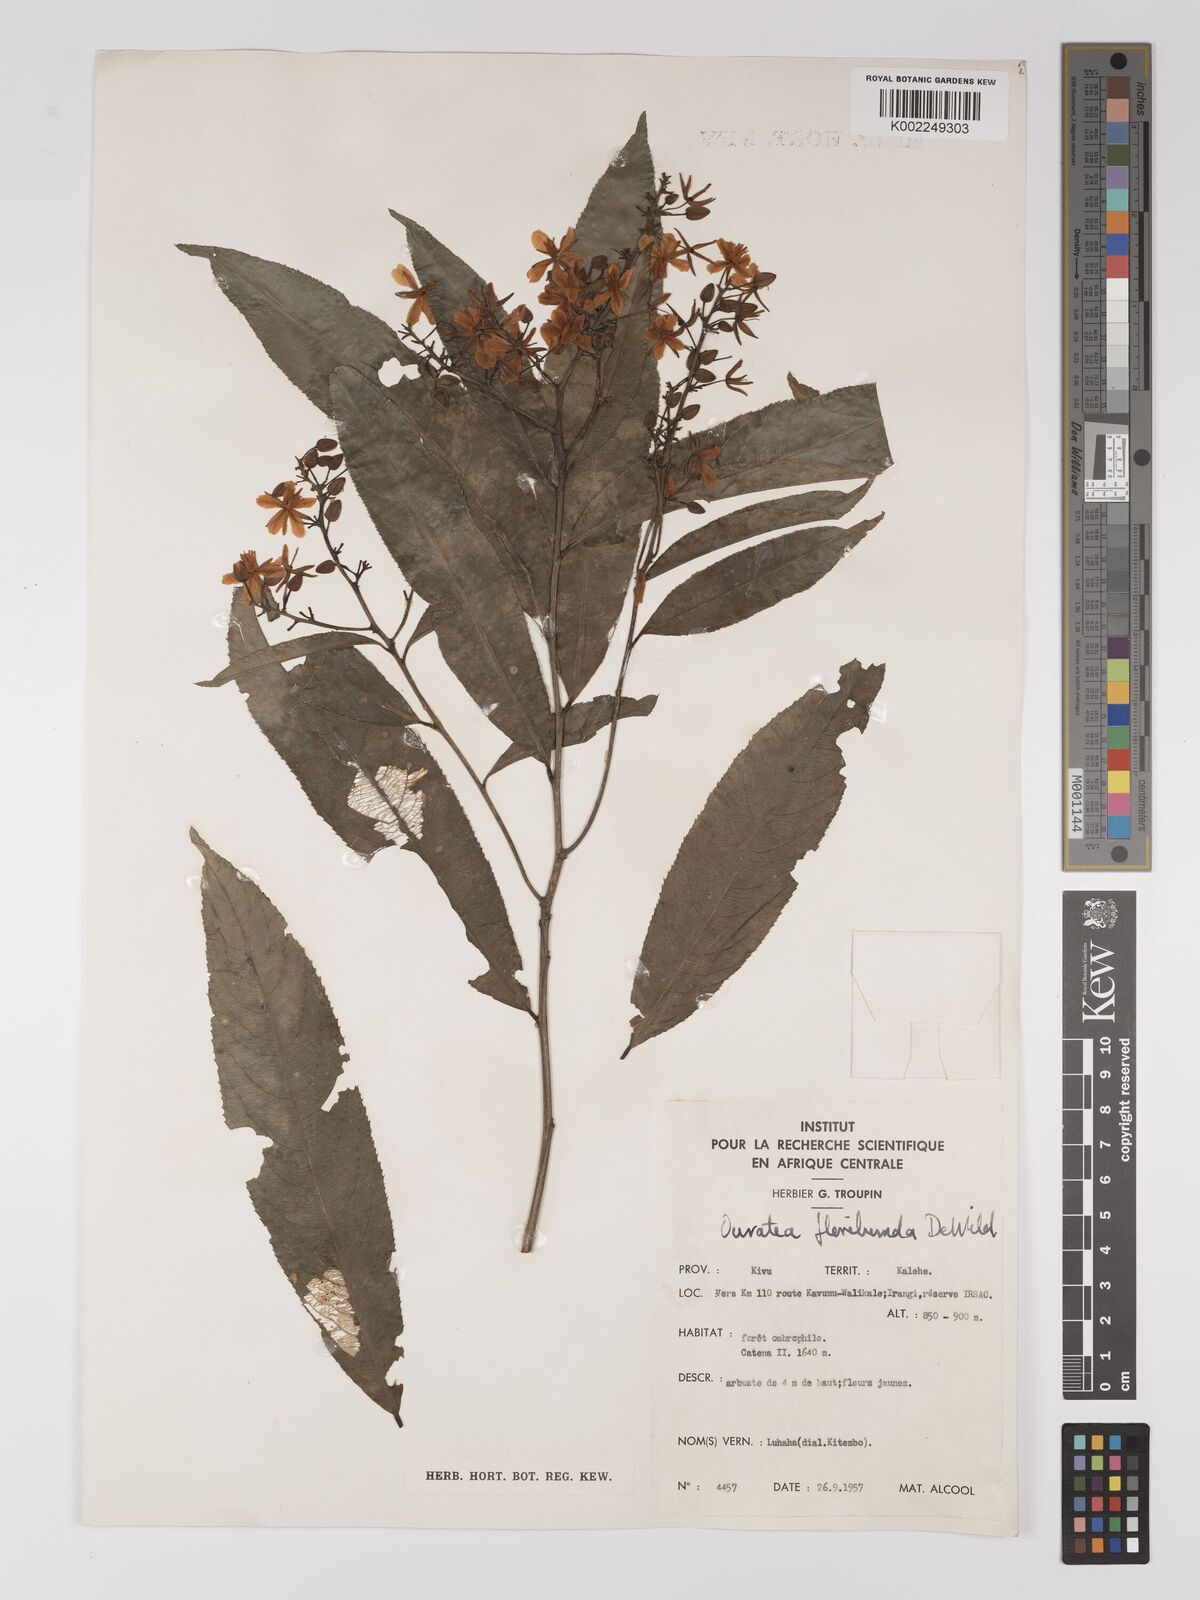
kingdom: Plantae
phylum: Tracheophyta
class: Magnoliopsida
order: Malpighiales
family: Ochnaceae
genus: Campylospermum
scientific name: Campylospermum likimiense
